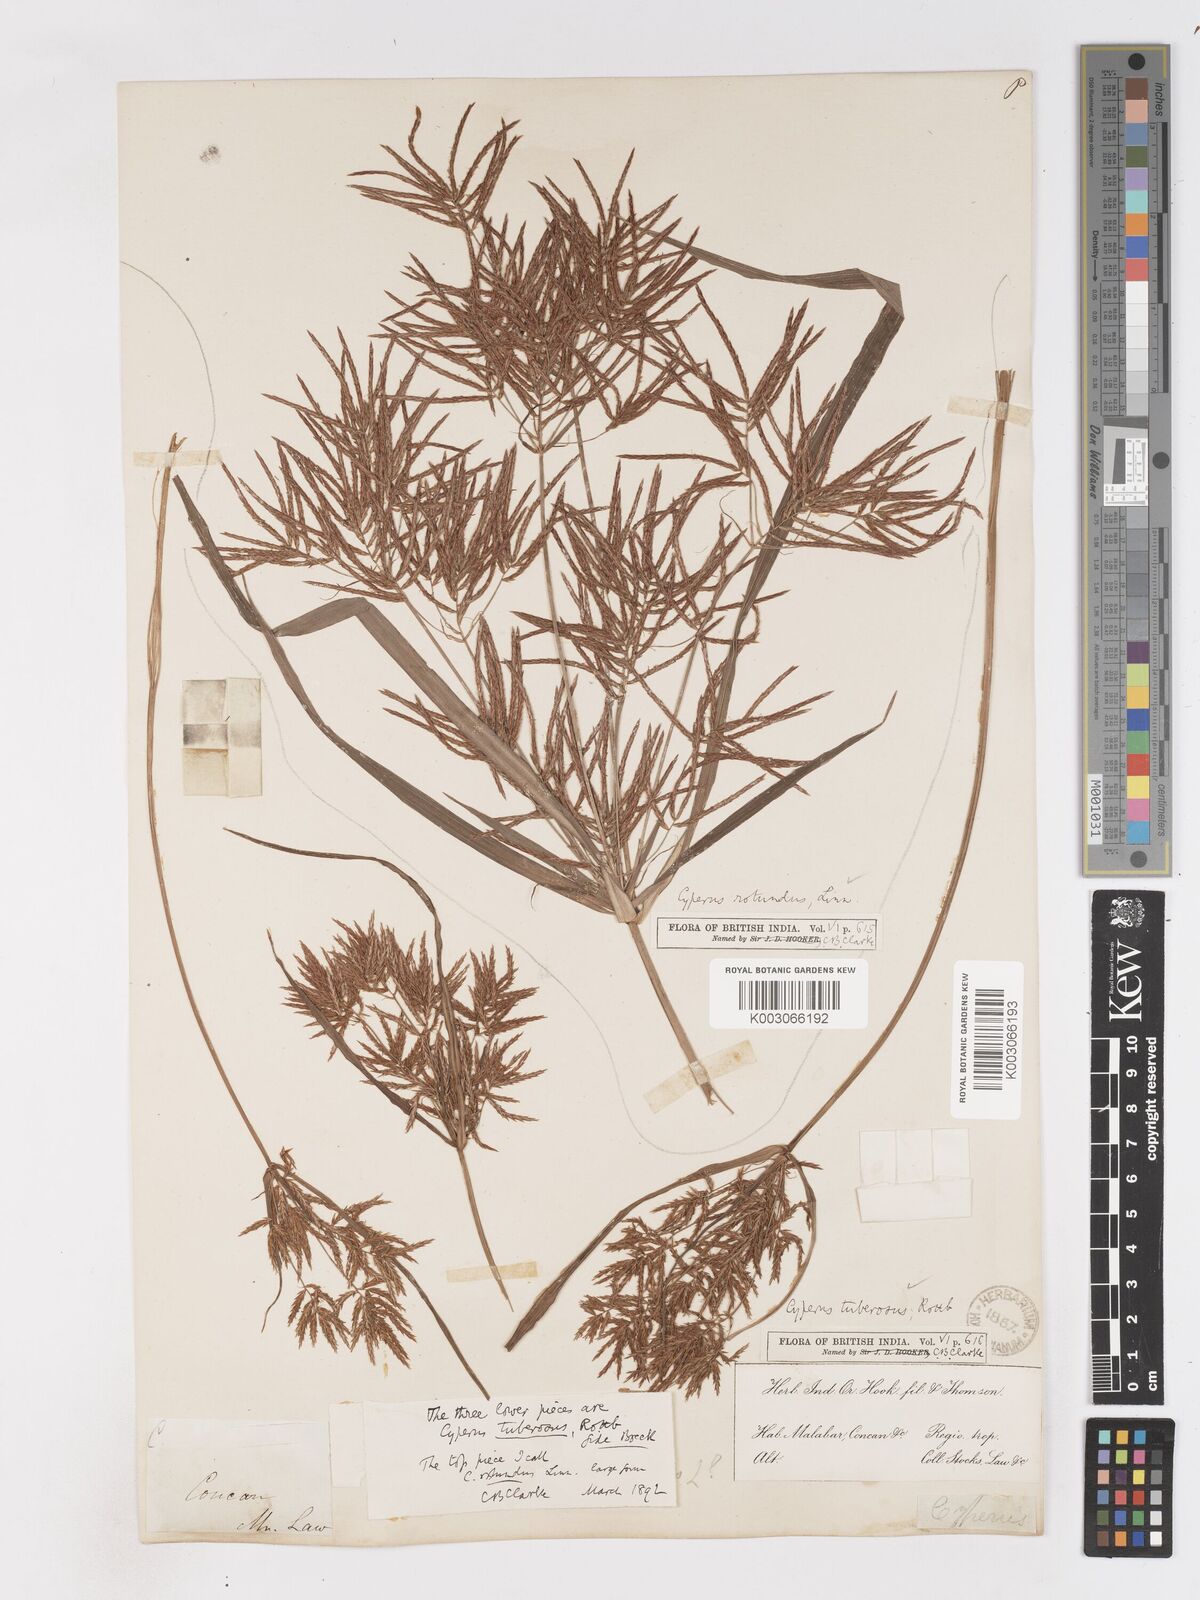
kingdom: Plantae
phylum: Tracheophyta
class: Liliopsida
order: Poales
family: Cyperaceae
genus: Cyperus
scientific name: Cyperus bifax
